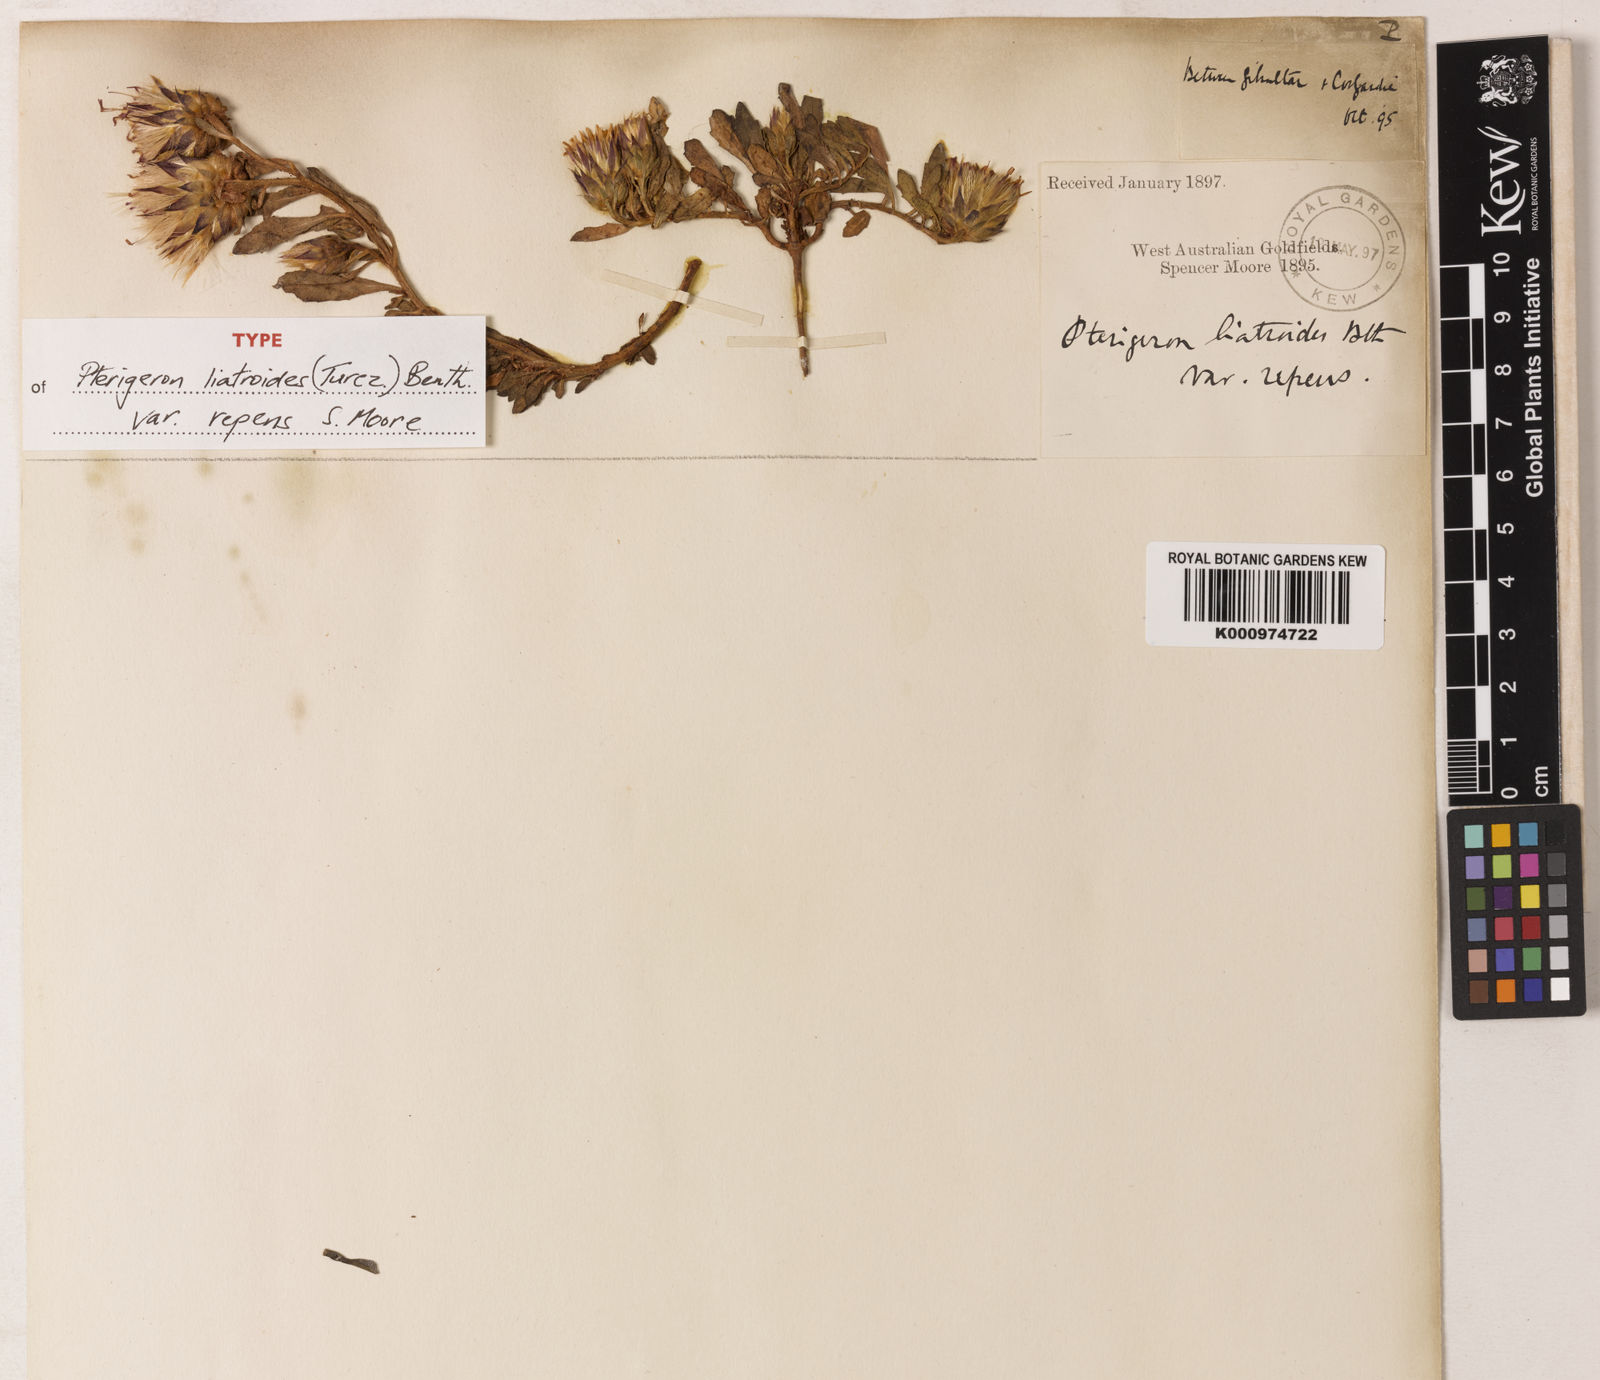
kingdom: Plantae
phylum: Tracheophyta
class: Magnoliopsida
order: Asterales
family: Asteraceae
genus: Streptoglossa
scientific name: Streptoglossa liatroides
